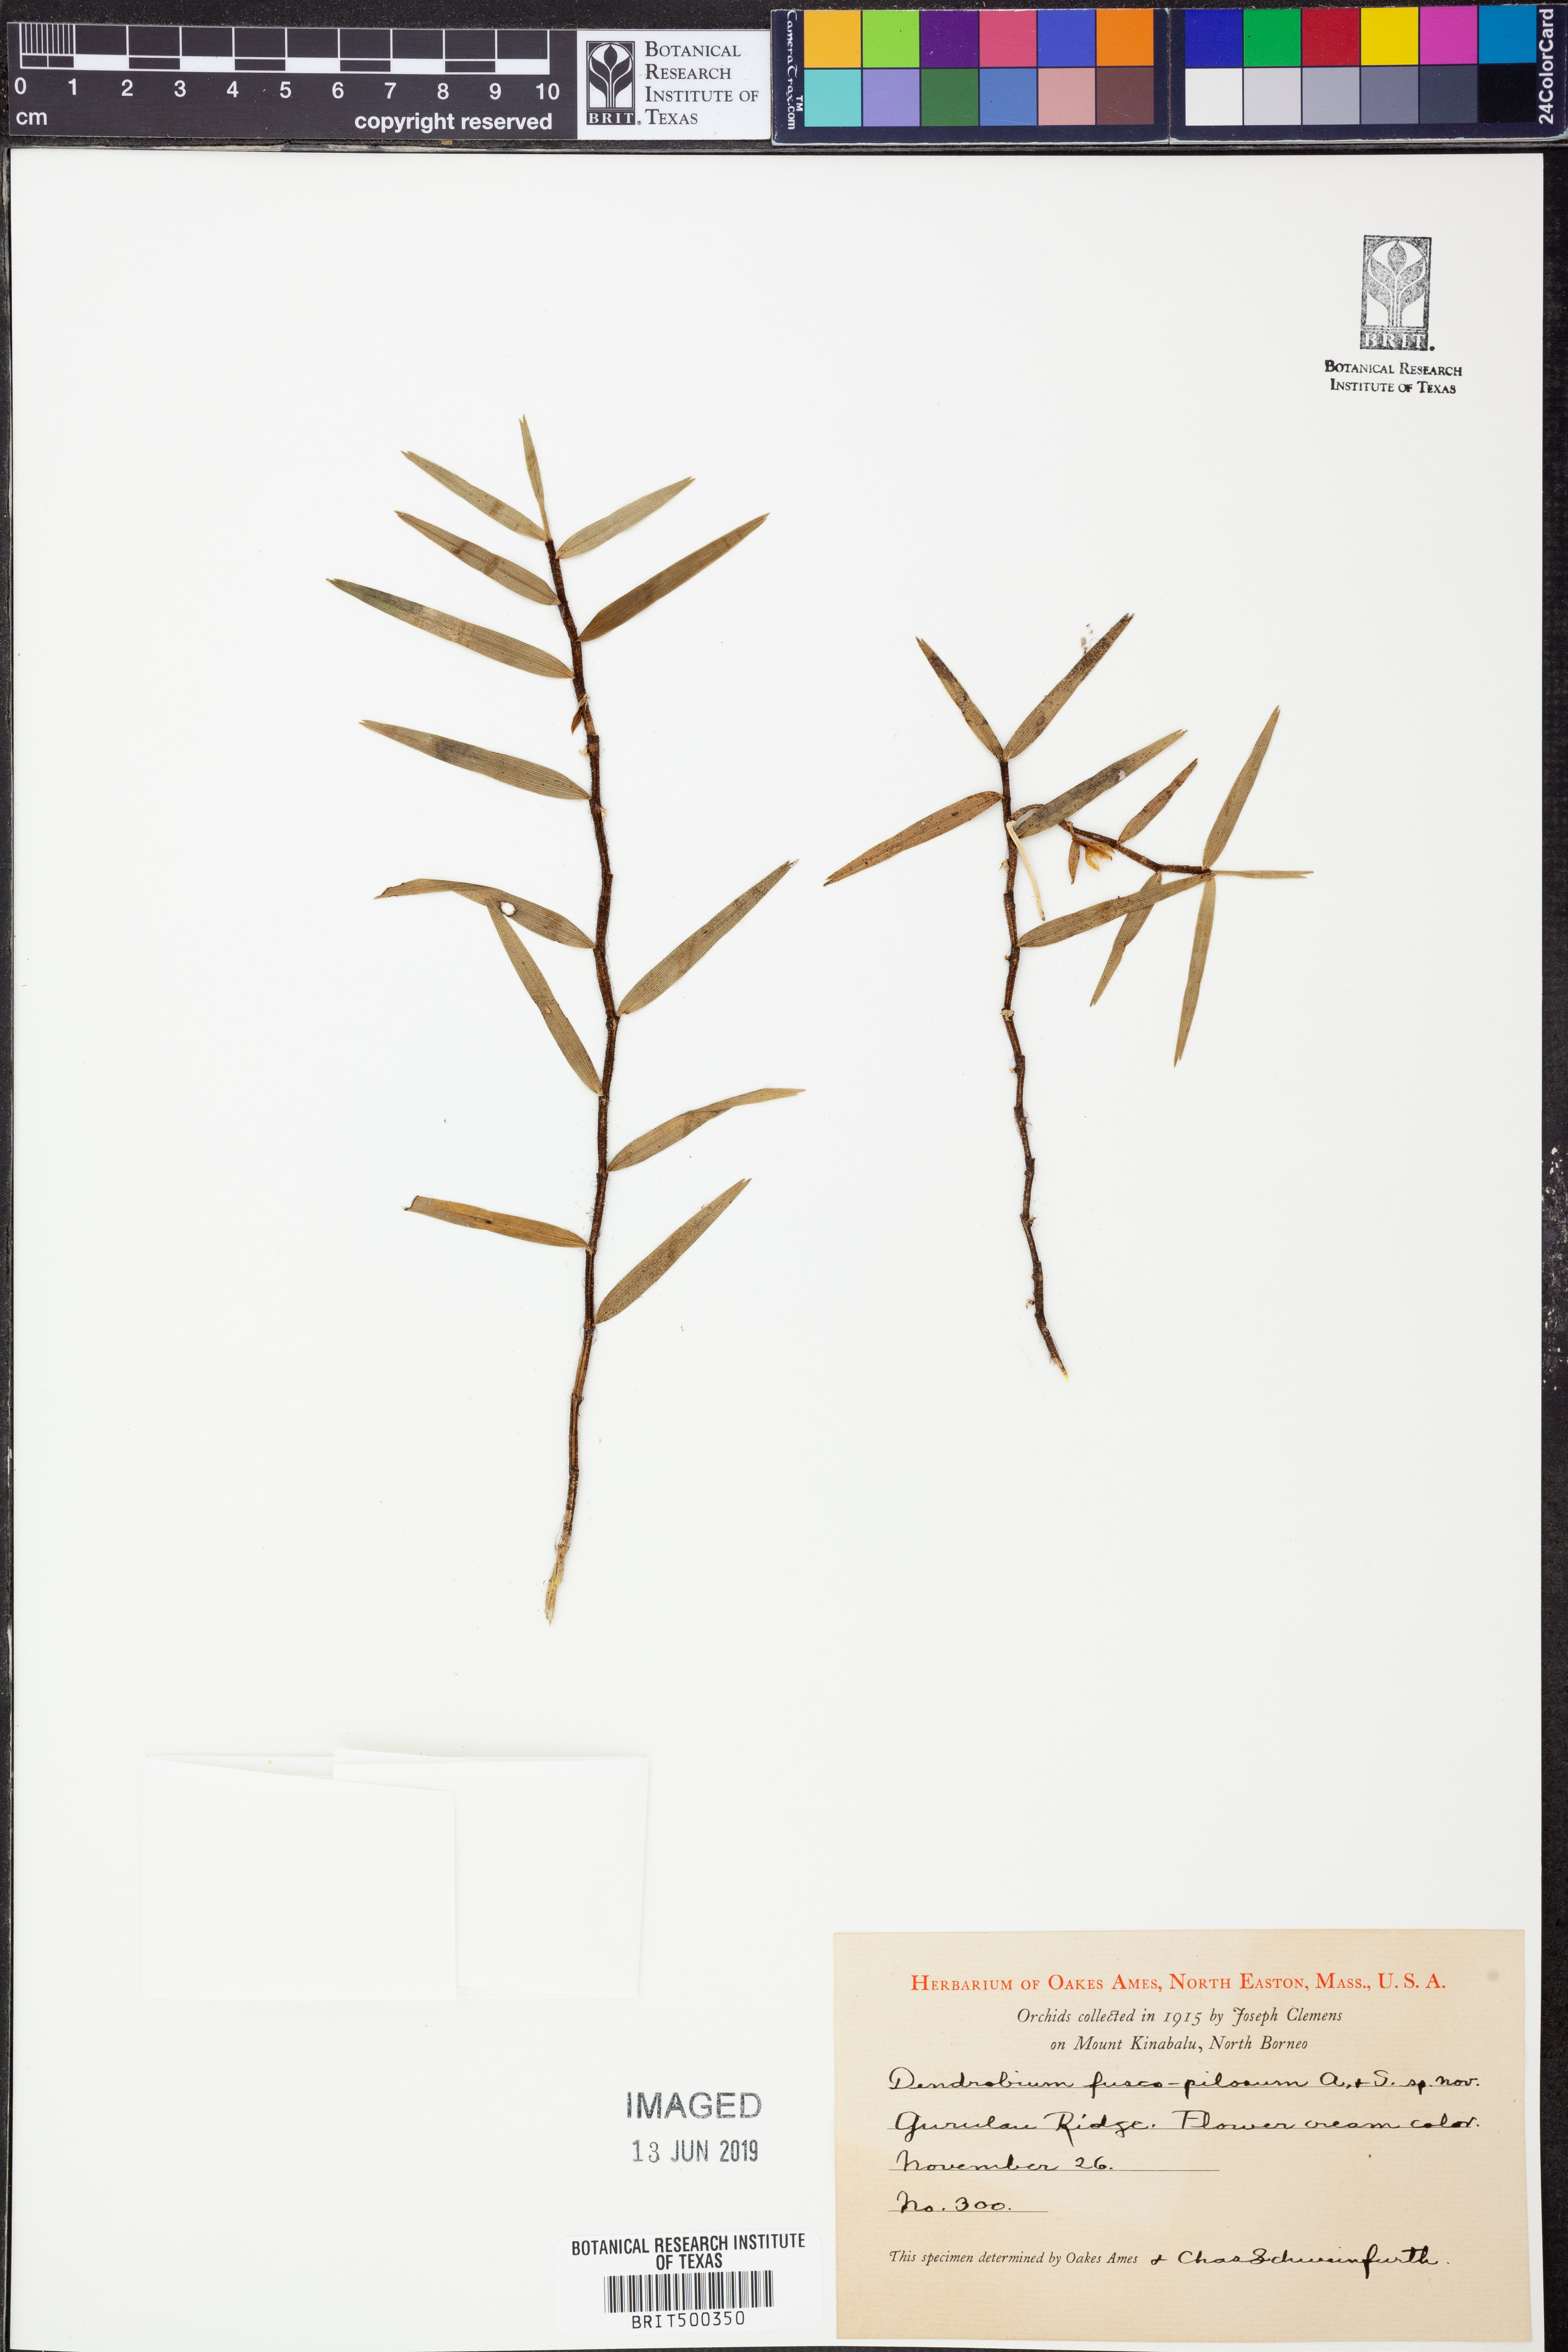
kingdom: Plantae
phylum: Tracheophyta
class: Liliopsida
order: Asparagales
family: Orchidaceae
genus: Dendrobium
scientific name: Dendrobium gramineum
